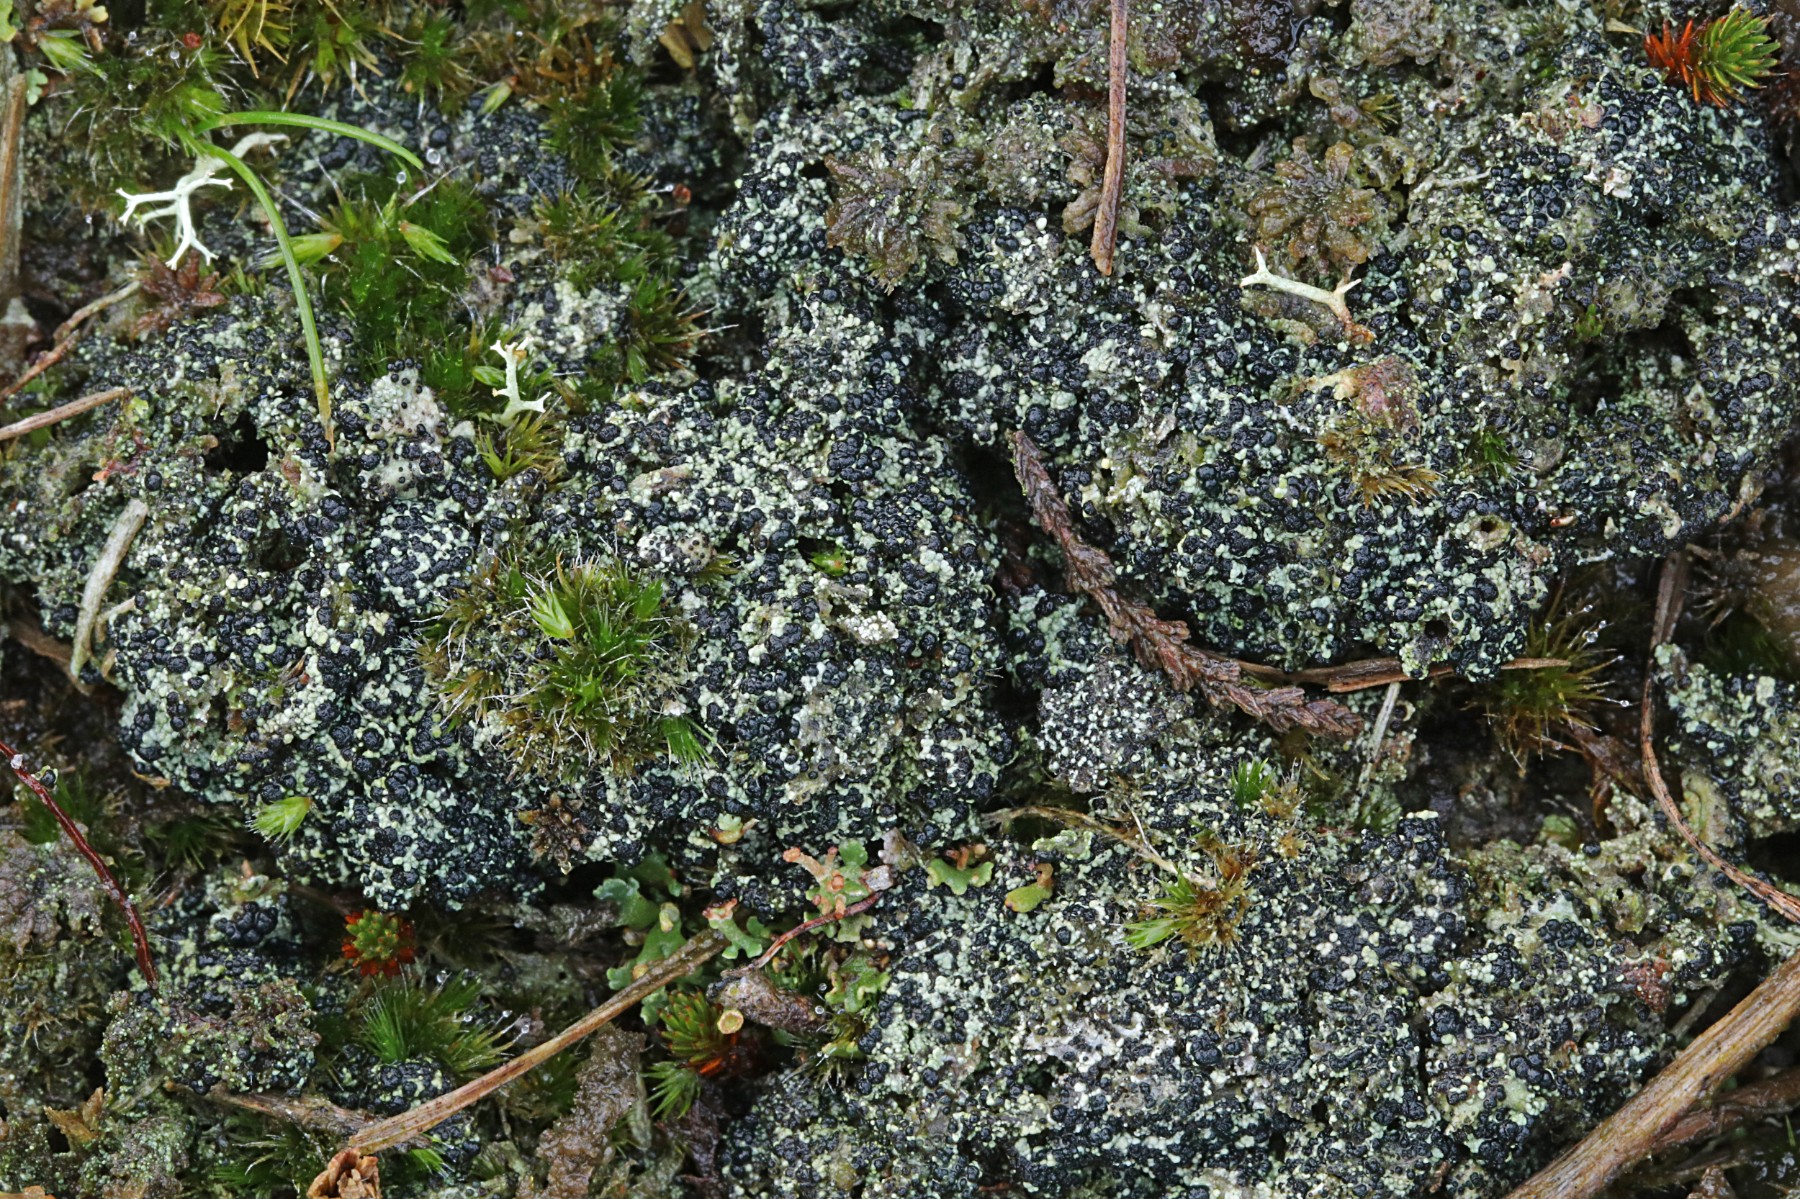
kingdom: Fungi
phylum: Ascomycota
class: Lecanoromycetes
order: Lecanorales
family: Byssolomataceae
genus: Micarea
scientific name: Micarea lignaria
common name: tørve-knaplav
